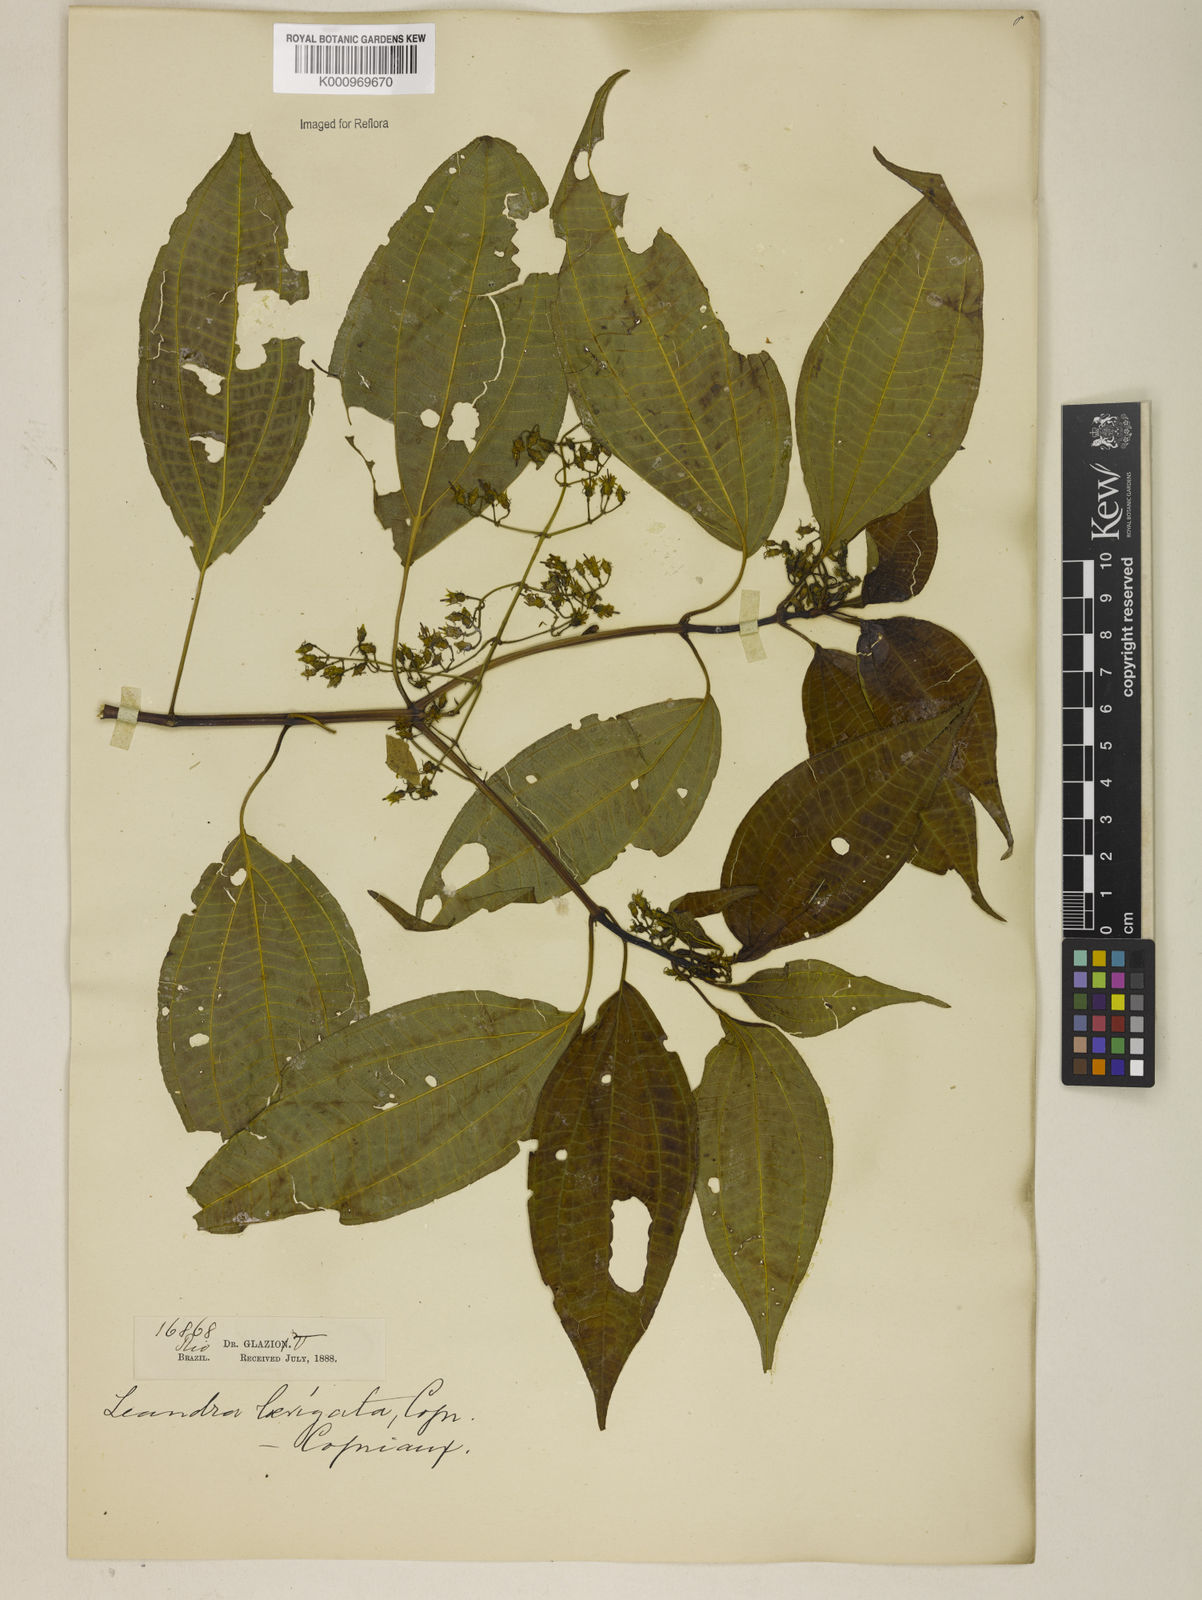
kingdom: Plantae
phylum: Tracheophyta
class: Magnoliopsida
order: Myrtales
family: Melastomataceae
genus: Miconia
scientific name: Miconia ciliolata
